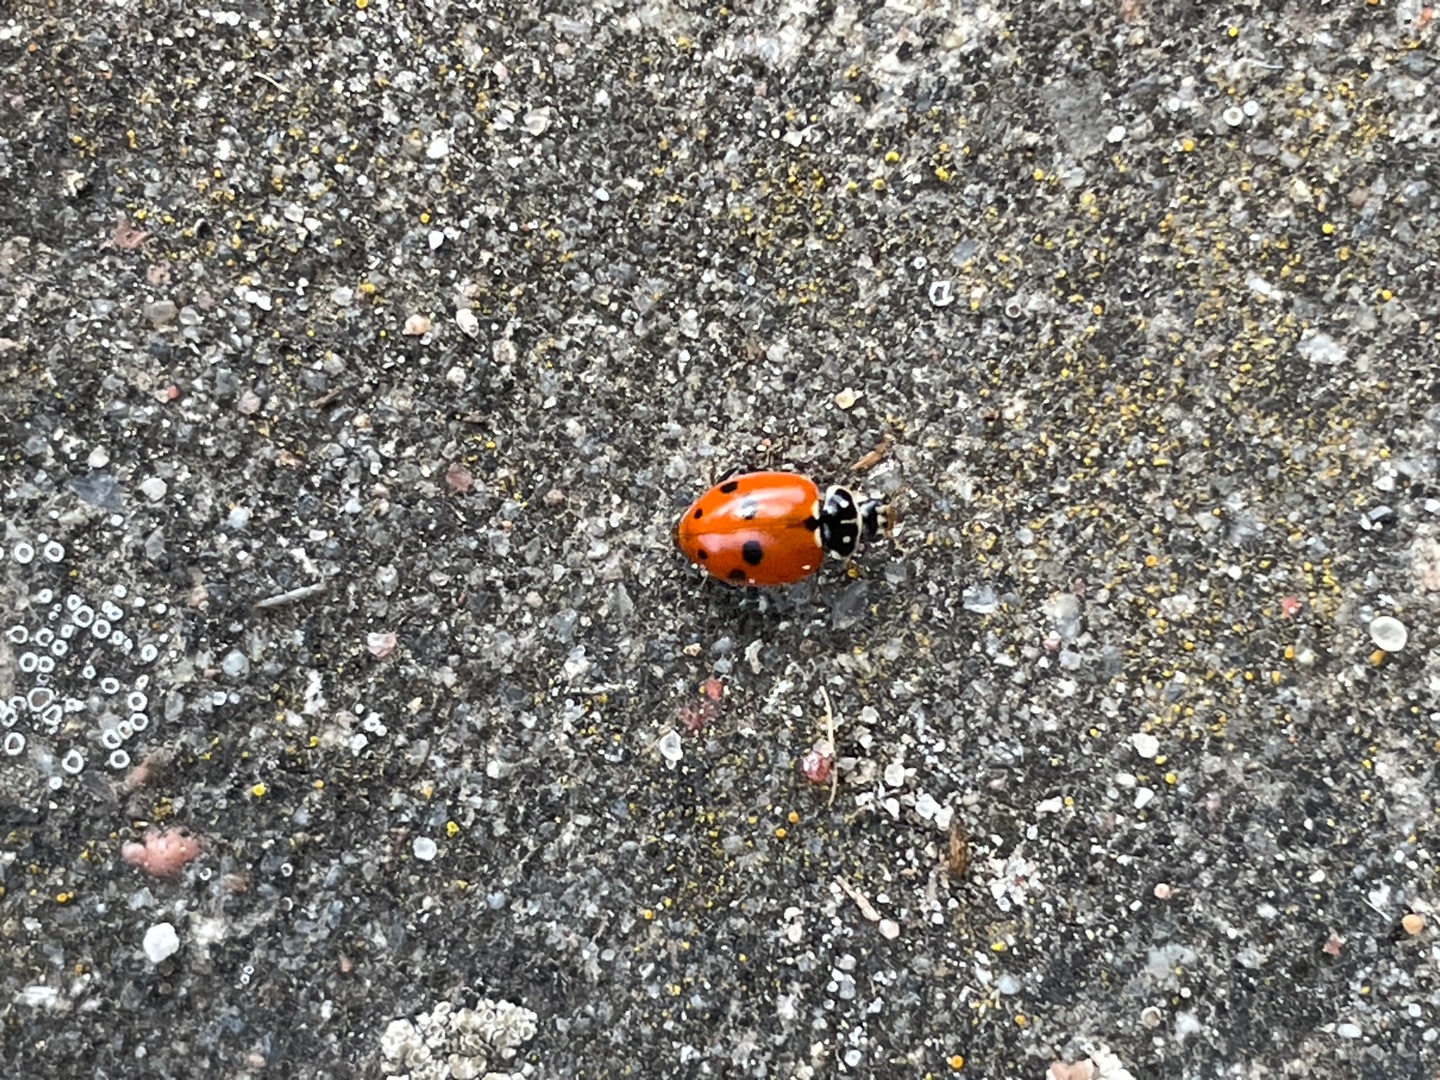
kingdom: Animalia
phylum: Arthropoda
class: Insecta
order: Coleoptera
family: Coccinellidae
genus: Hippodamia
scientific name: Hippodamia variegata
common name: Adonis' mariehøne
